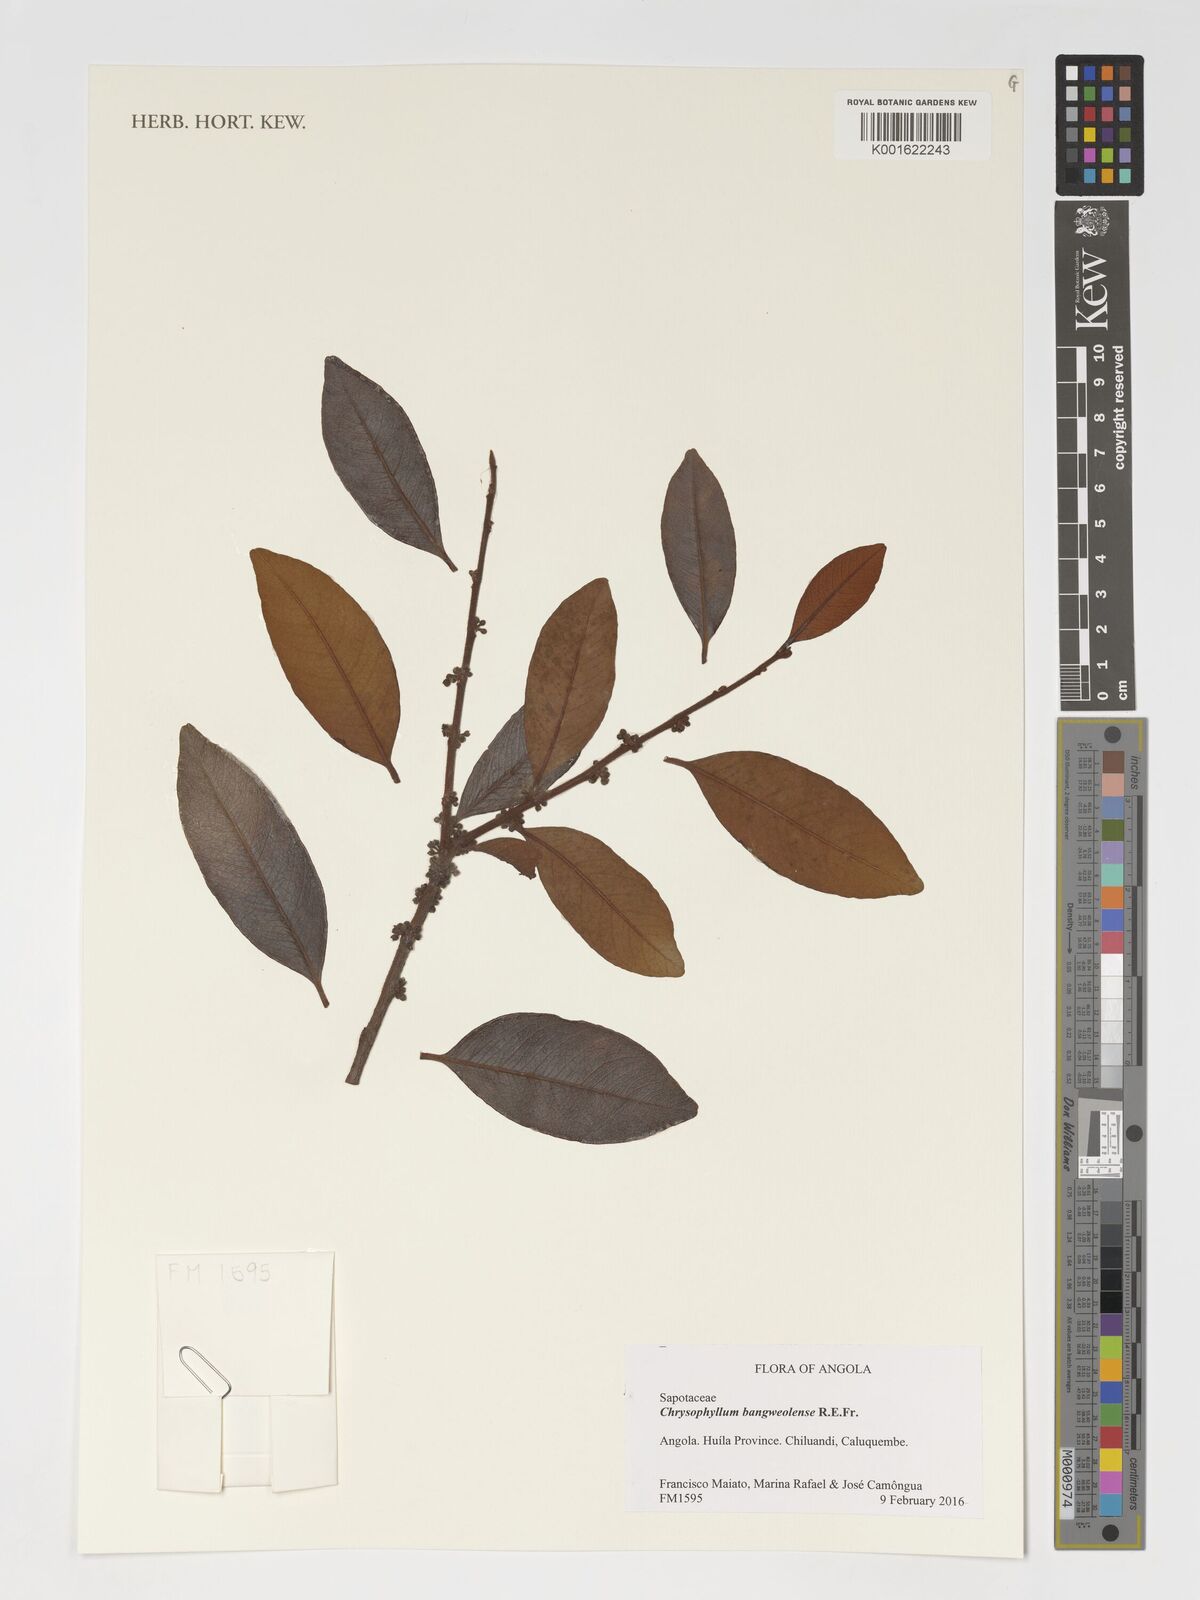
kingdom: Plantae
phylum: Tracheophyta
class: Magnoliopsida
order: Ericales
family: Sapotaceae
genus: Donella
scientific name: Donella bangweolensis
